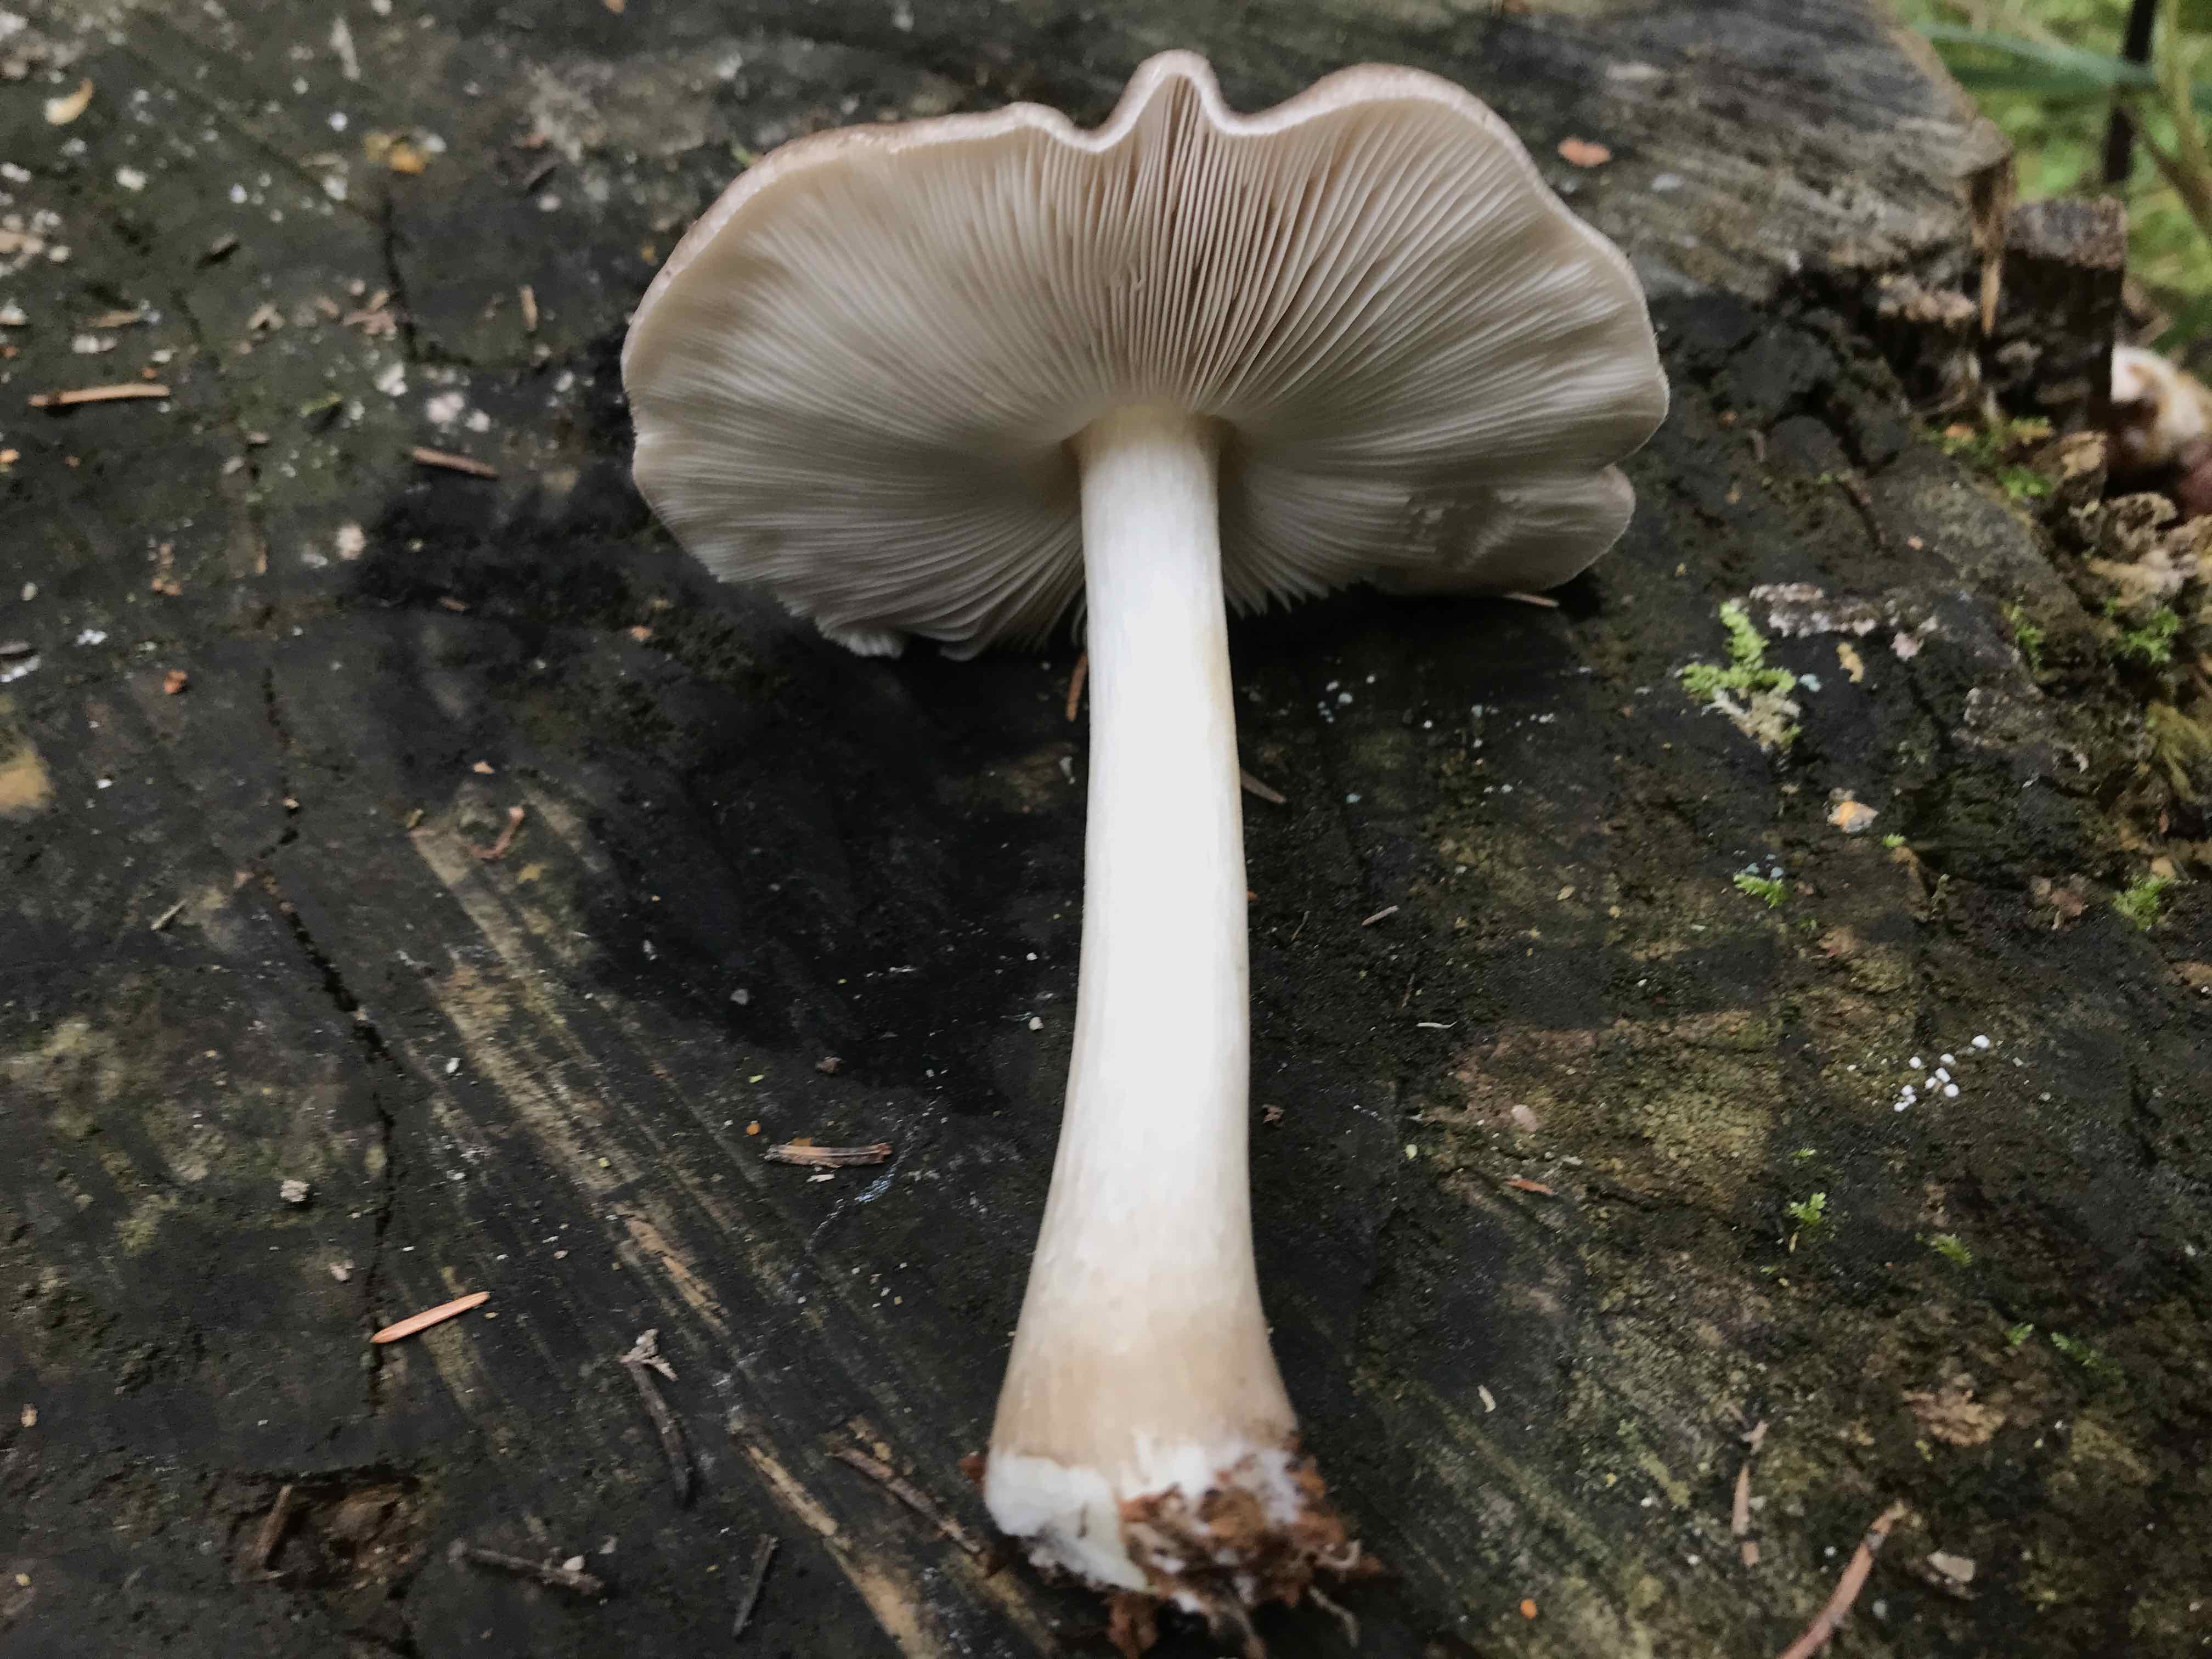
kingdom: Fungi
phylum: Basidiomycota
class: Agaricomycetes
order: Agaricales
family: Pluteaceae
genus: Pluteus
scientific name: Pluteus
